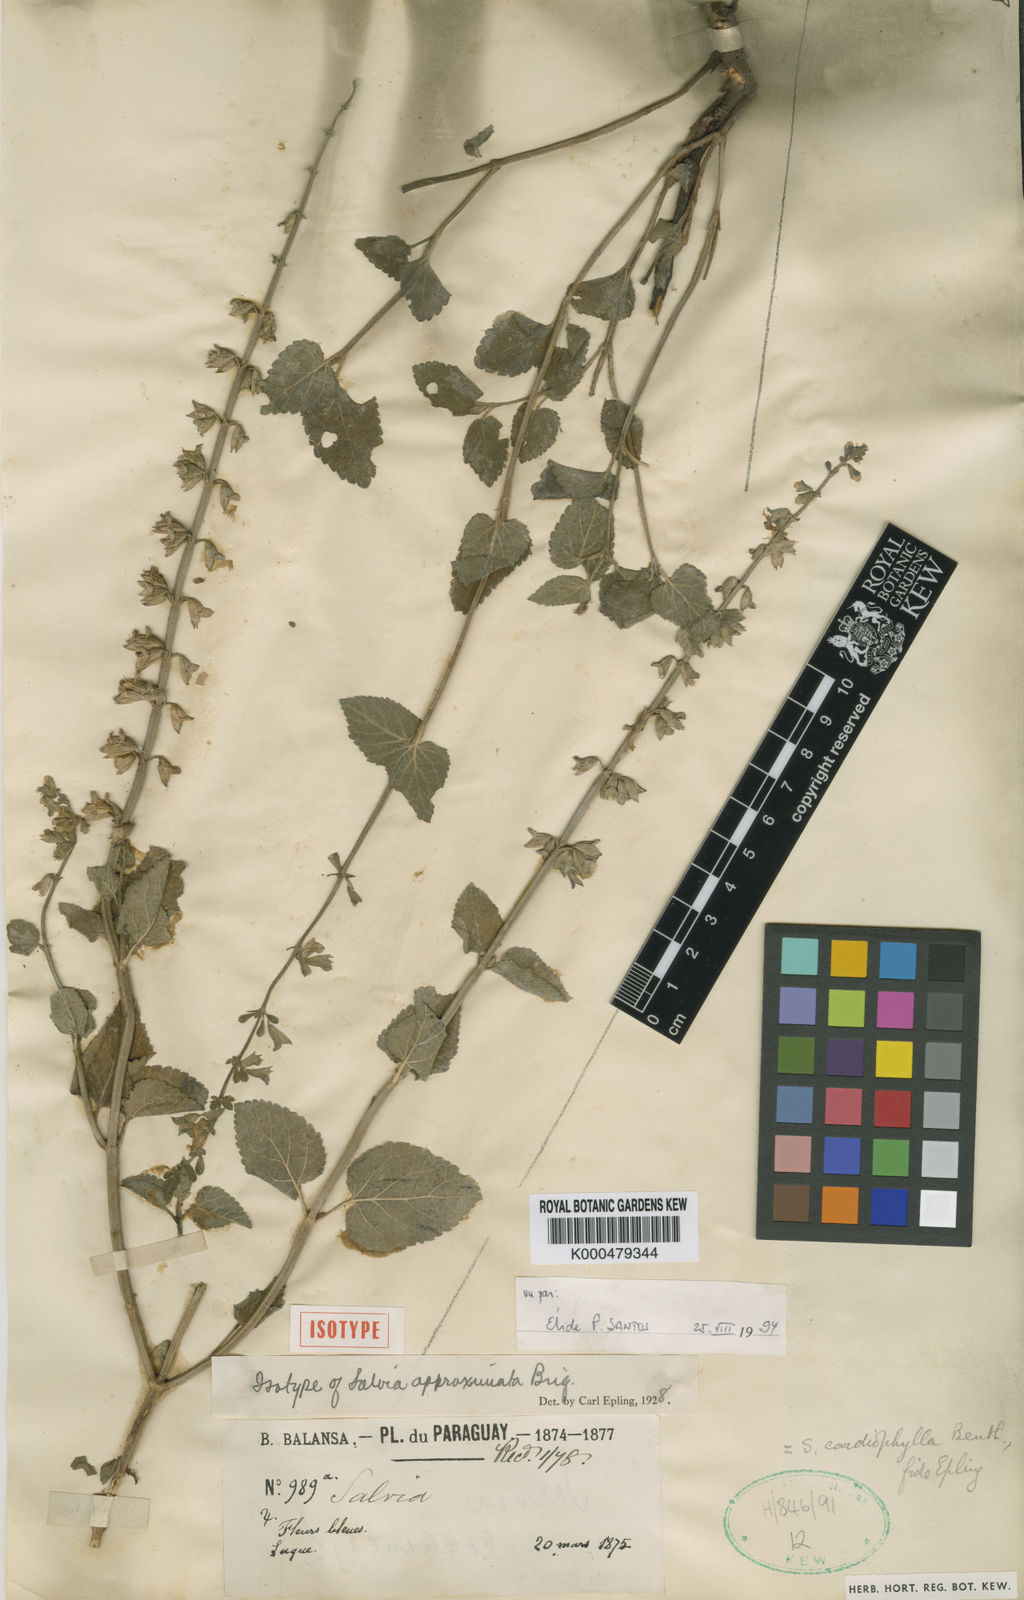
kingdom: Plantae
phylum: Tracheophyta
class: Magnoliopsida
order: Lamiales
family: Lamiaceae
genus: Salvia
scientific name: Salvia
